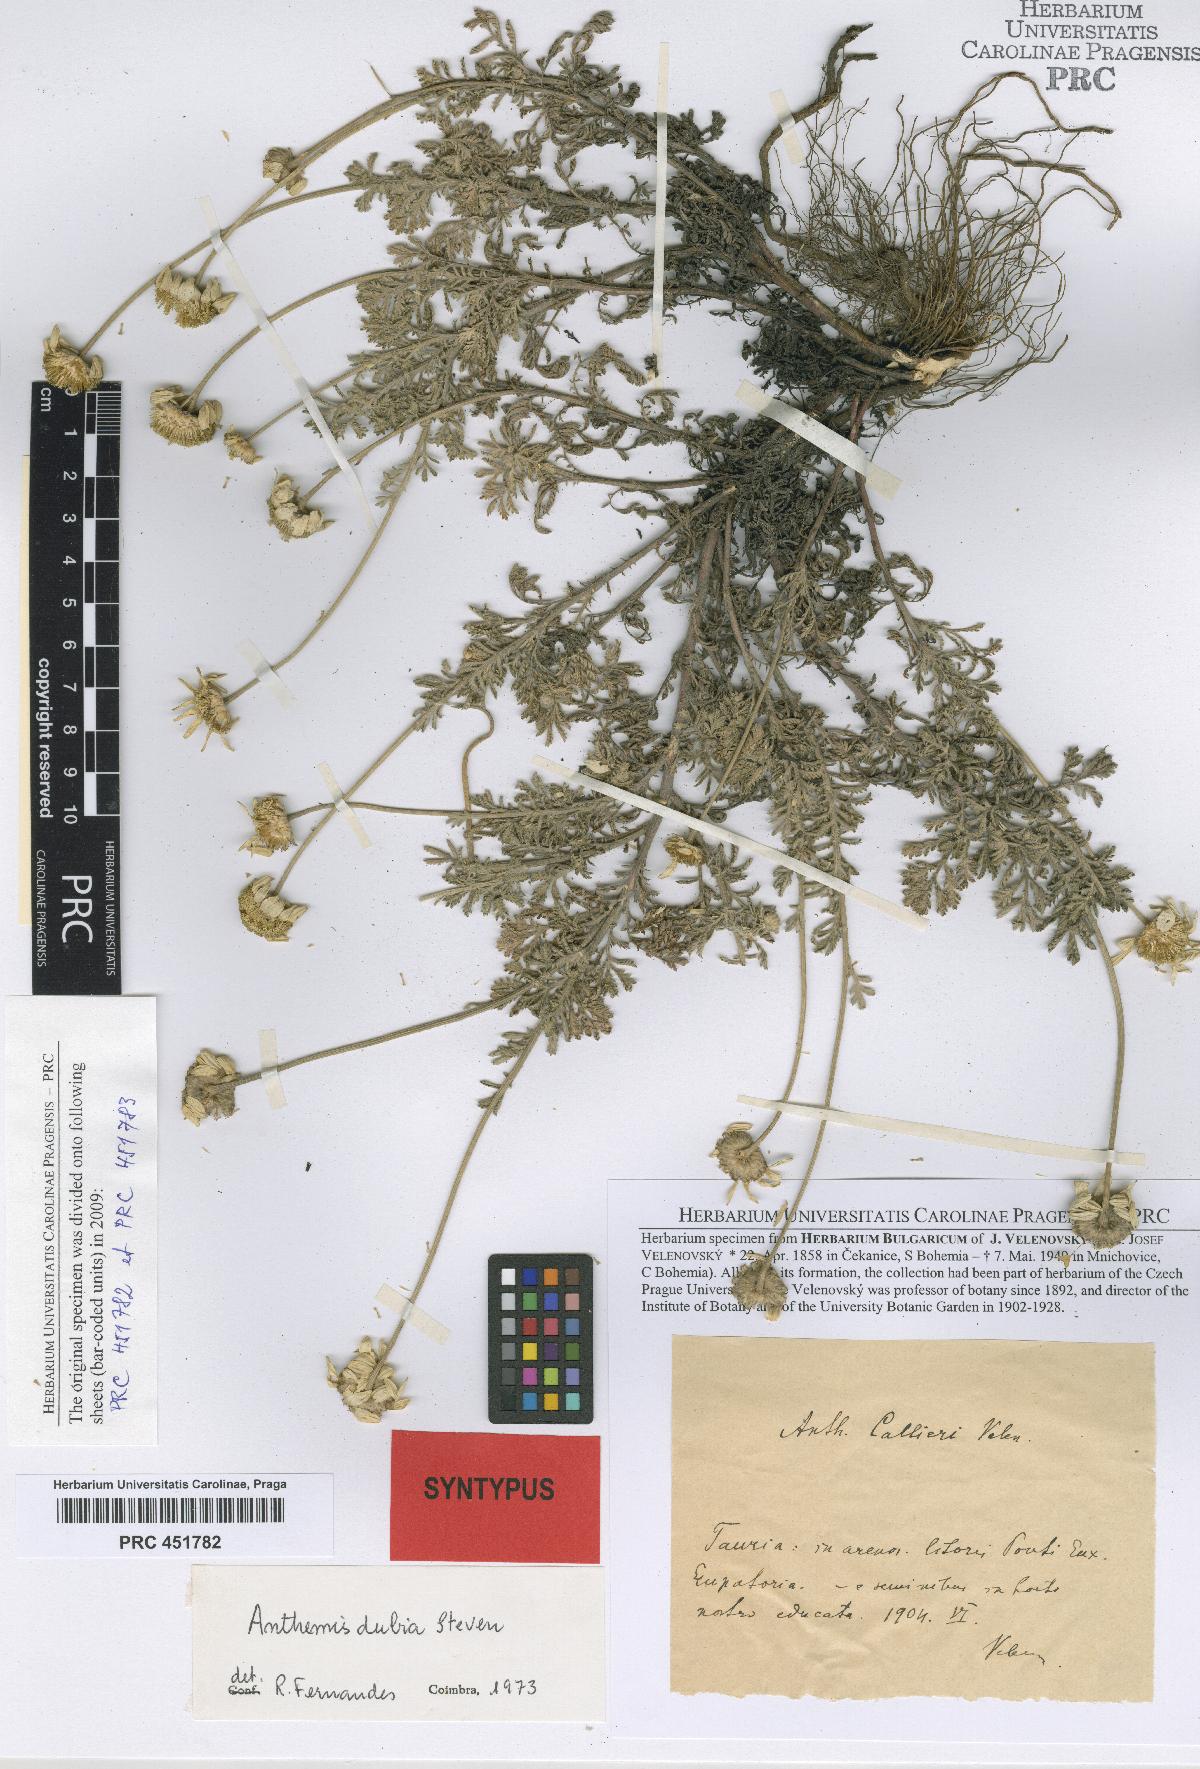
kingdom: Plantae
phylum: Tracheophyta
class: Magnoliopsida
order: Asterales
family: Asteraceae
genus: Cota
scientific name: Cota dubia
